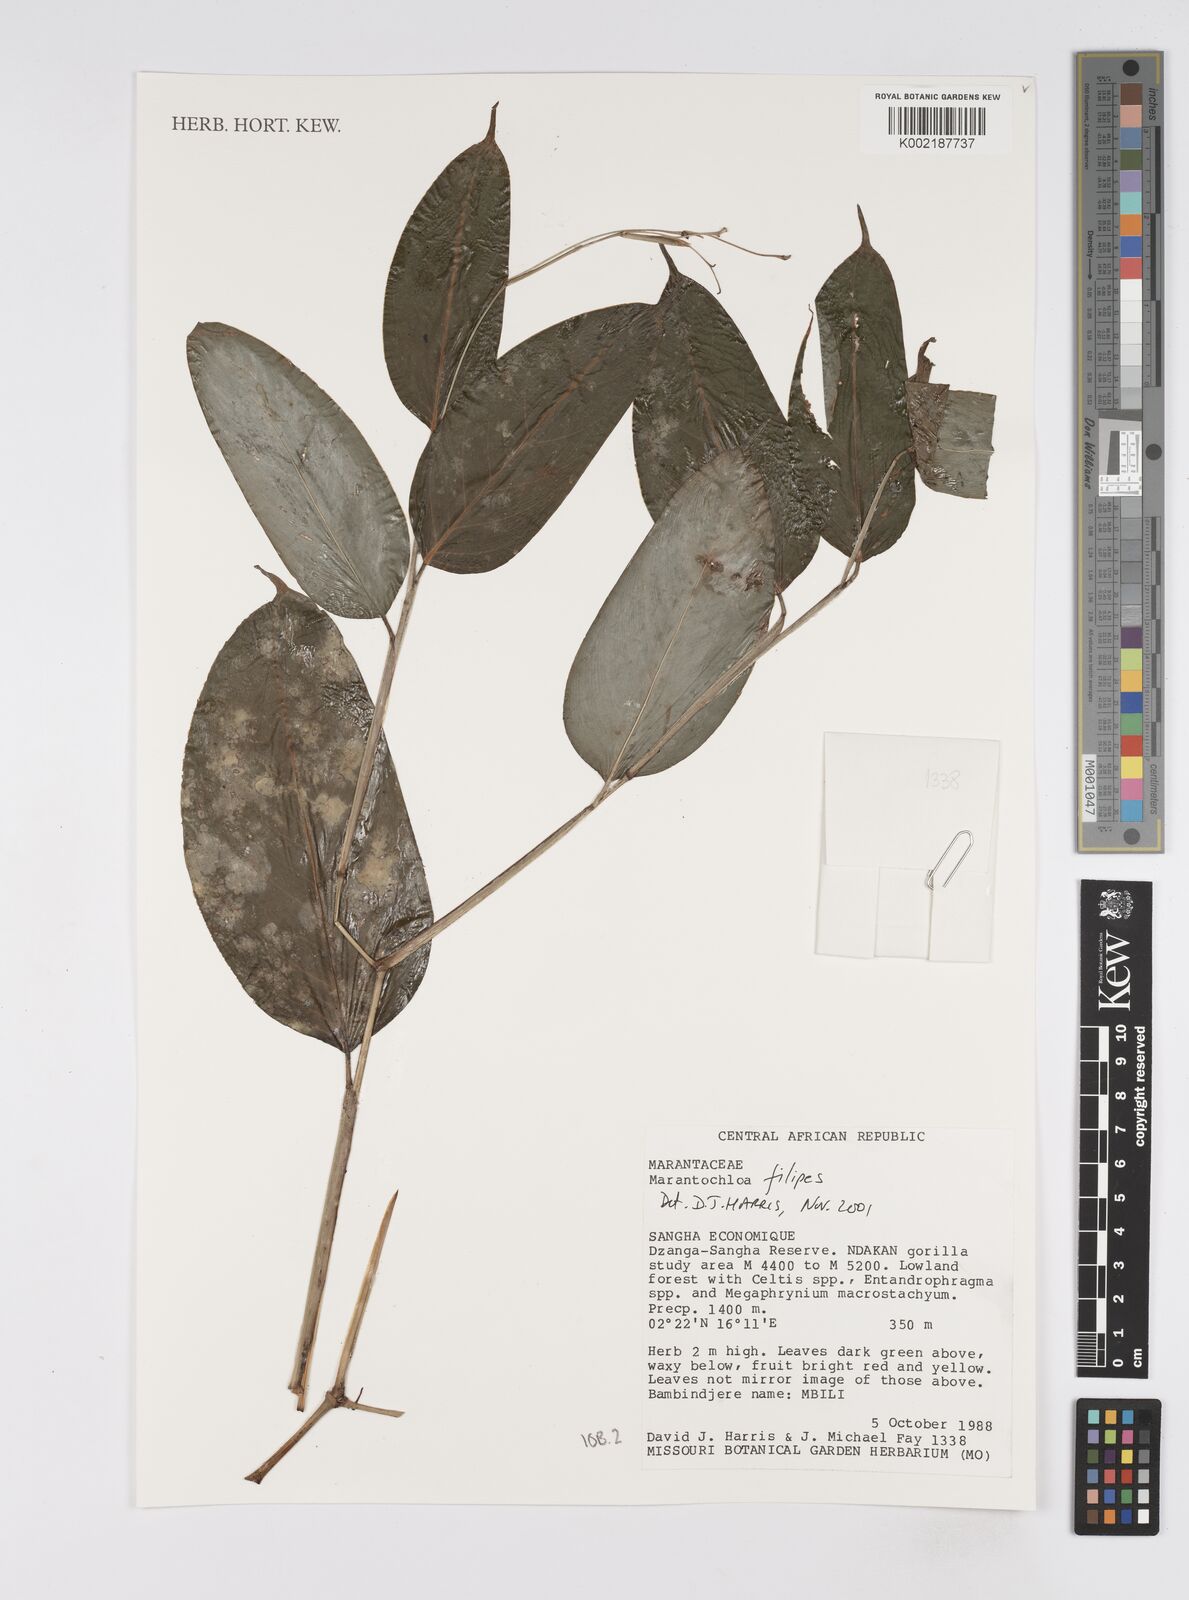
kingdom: Plantae
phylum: Tracheophyta
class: Liliopsida
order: Zingiberales
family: Marantaceae
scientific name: Marantaceae
